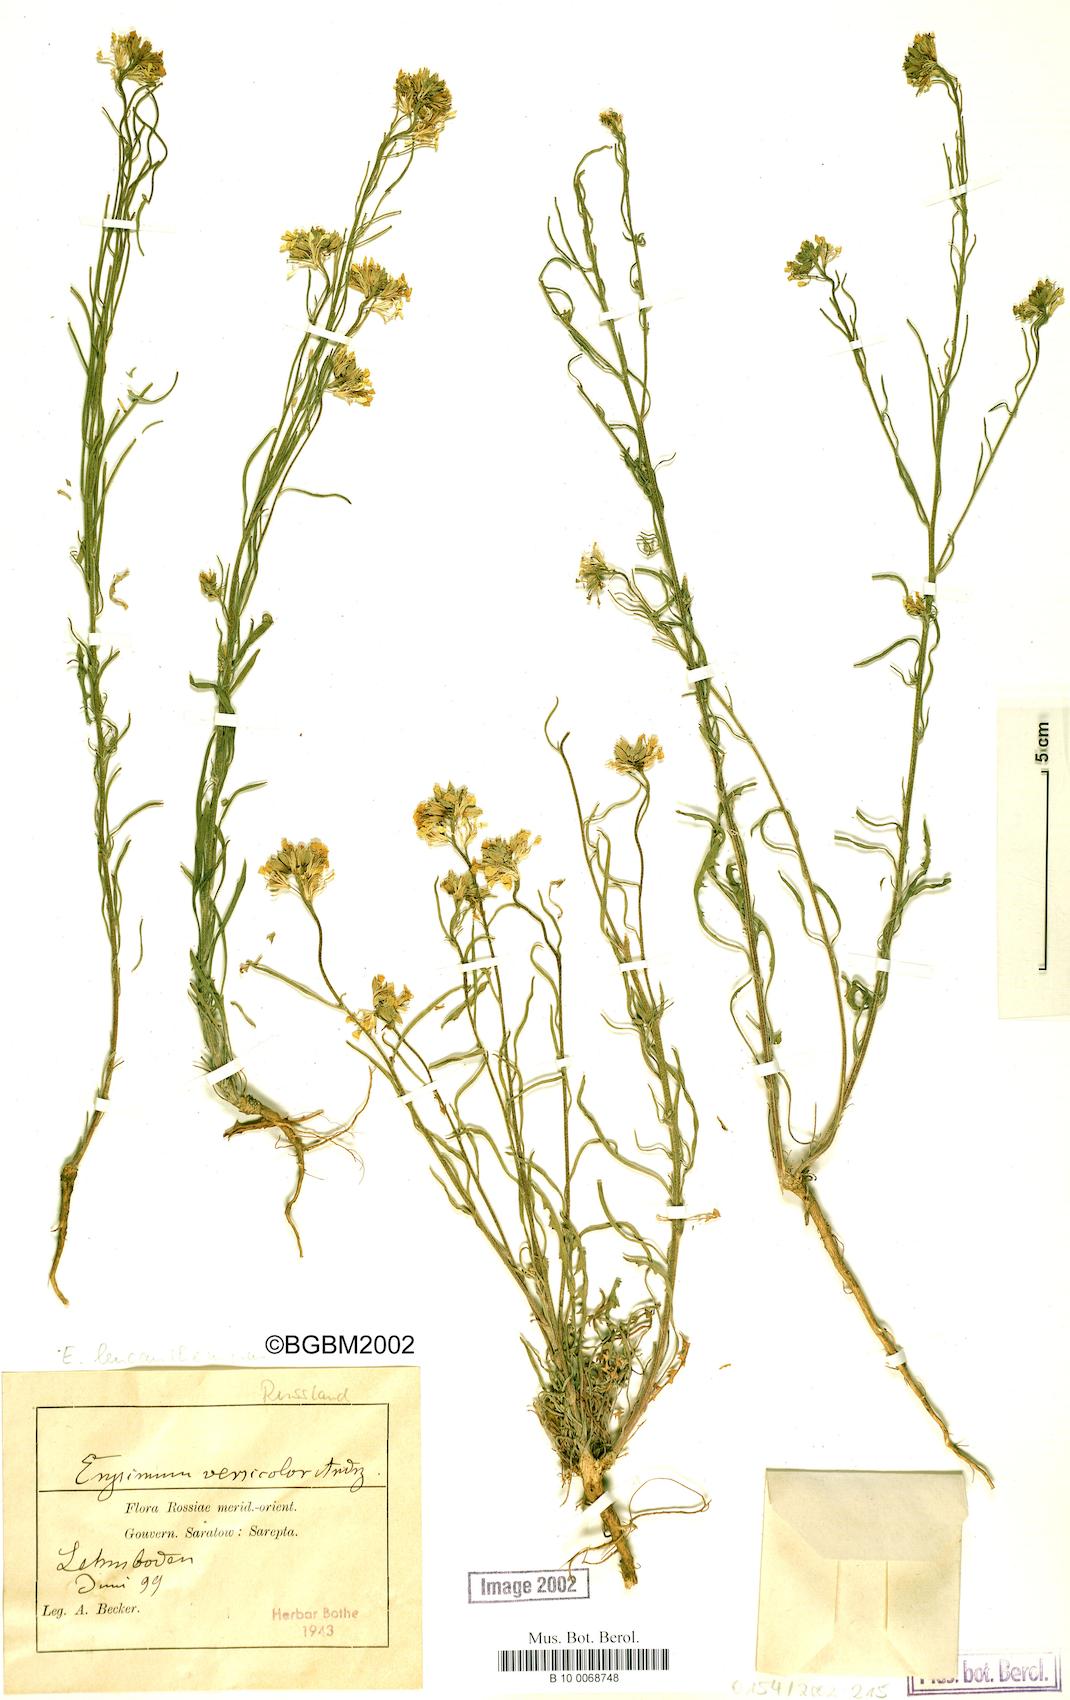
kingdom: Plantae
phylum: Tracheophyta
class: Magnoliopsida
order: Brassicales
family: Brassicaceae
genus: Erysimum
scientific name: Erysimum leucanthemum
